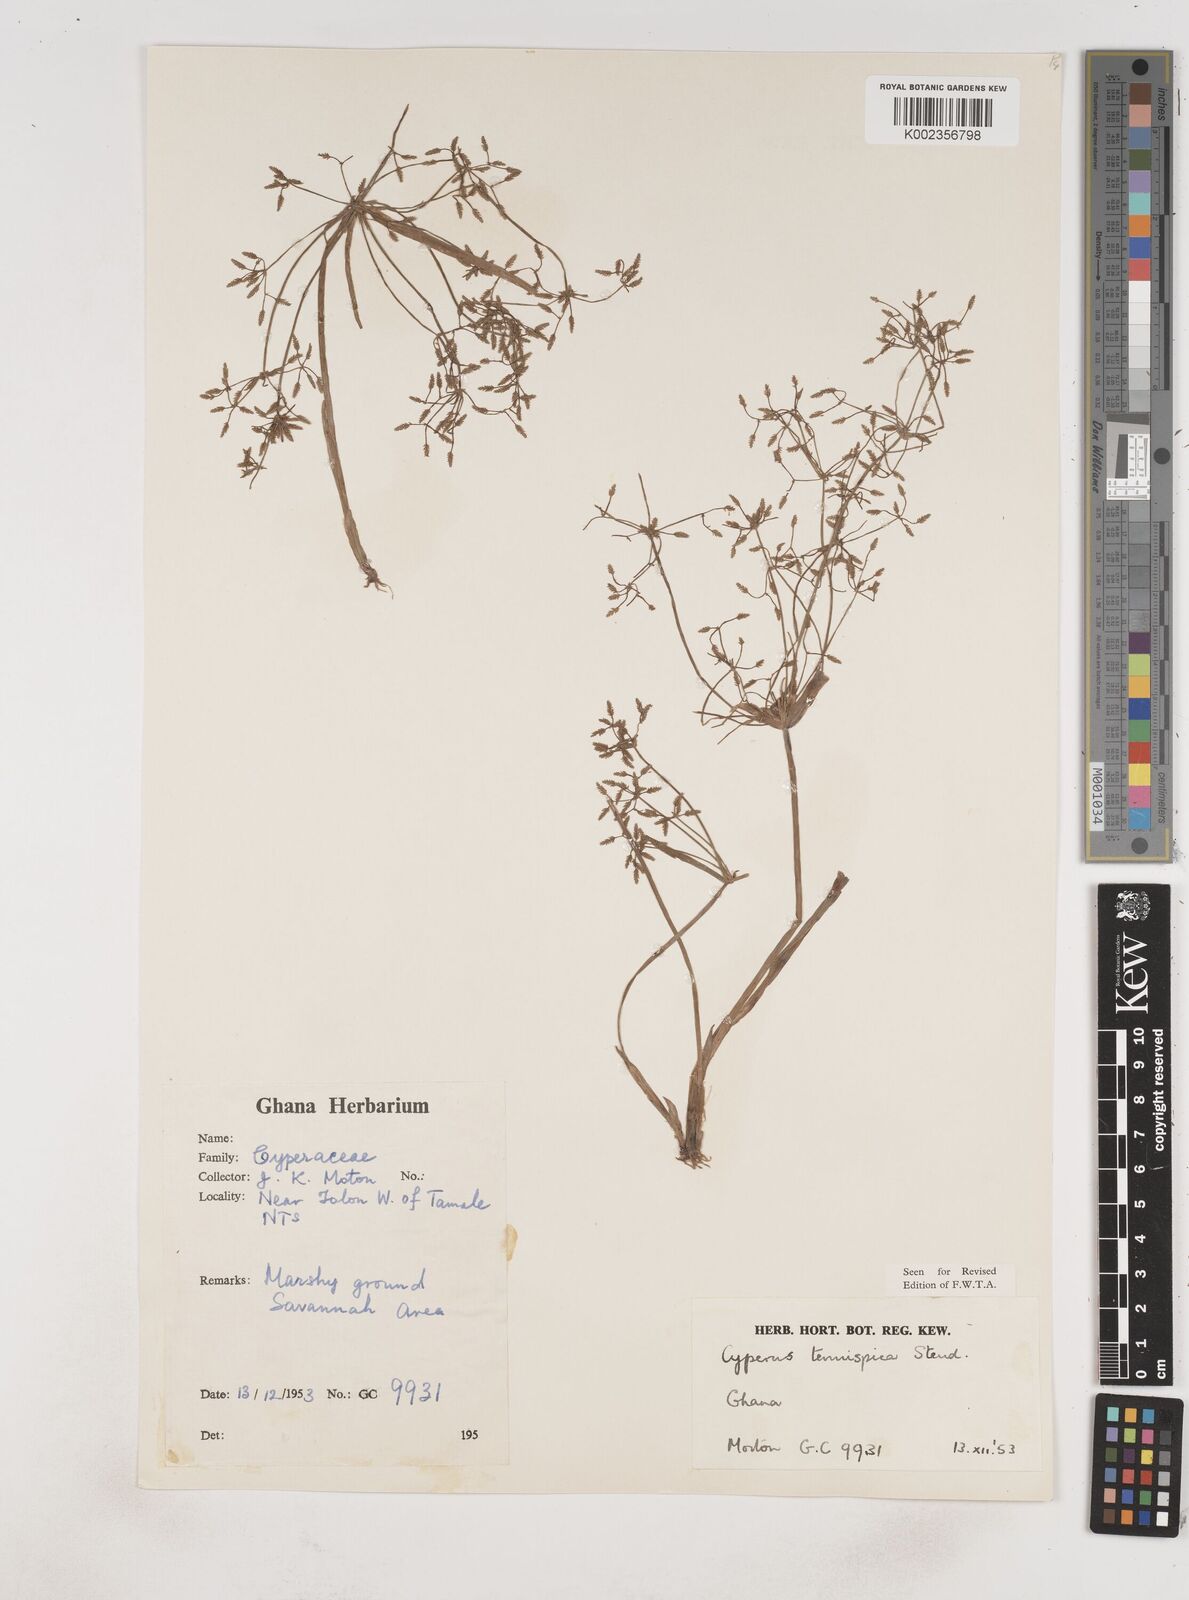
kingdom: Plantae
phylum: Tracheophyta
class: Liliopsida
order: Poales
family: Cyperaceae
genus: Cyperus
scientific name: Cyperus tenuispica
